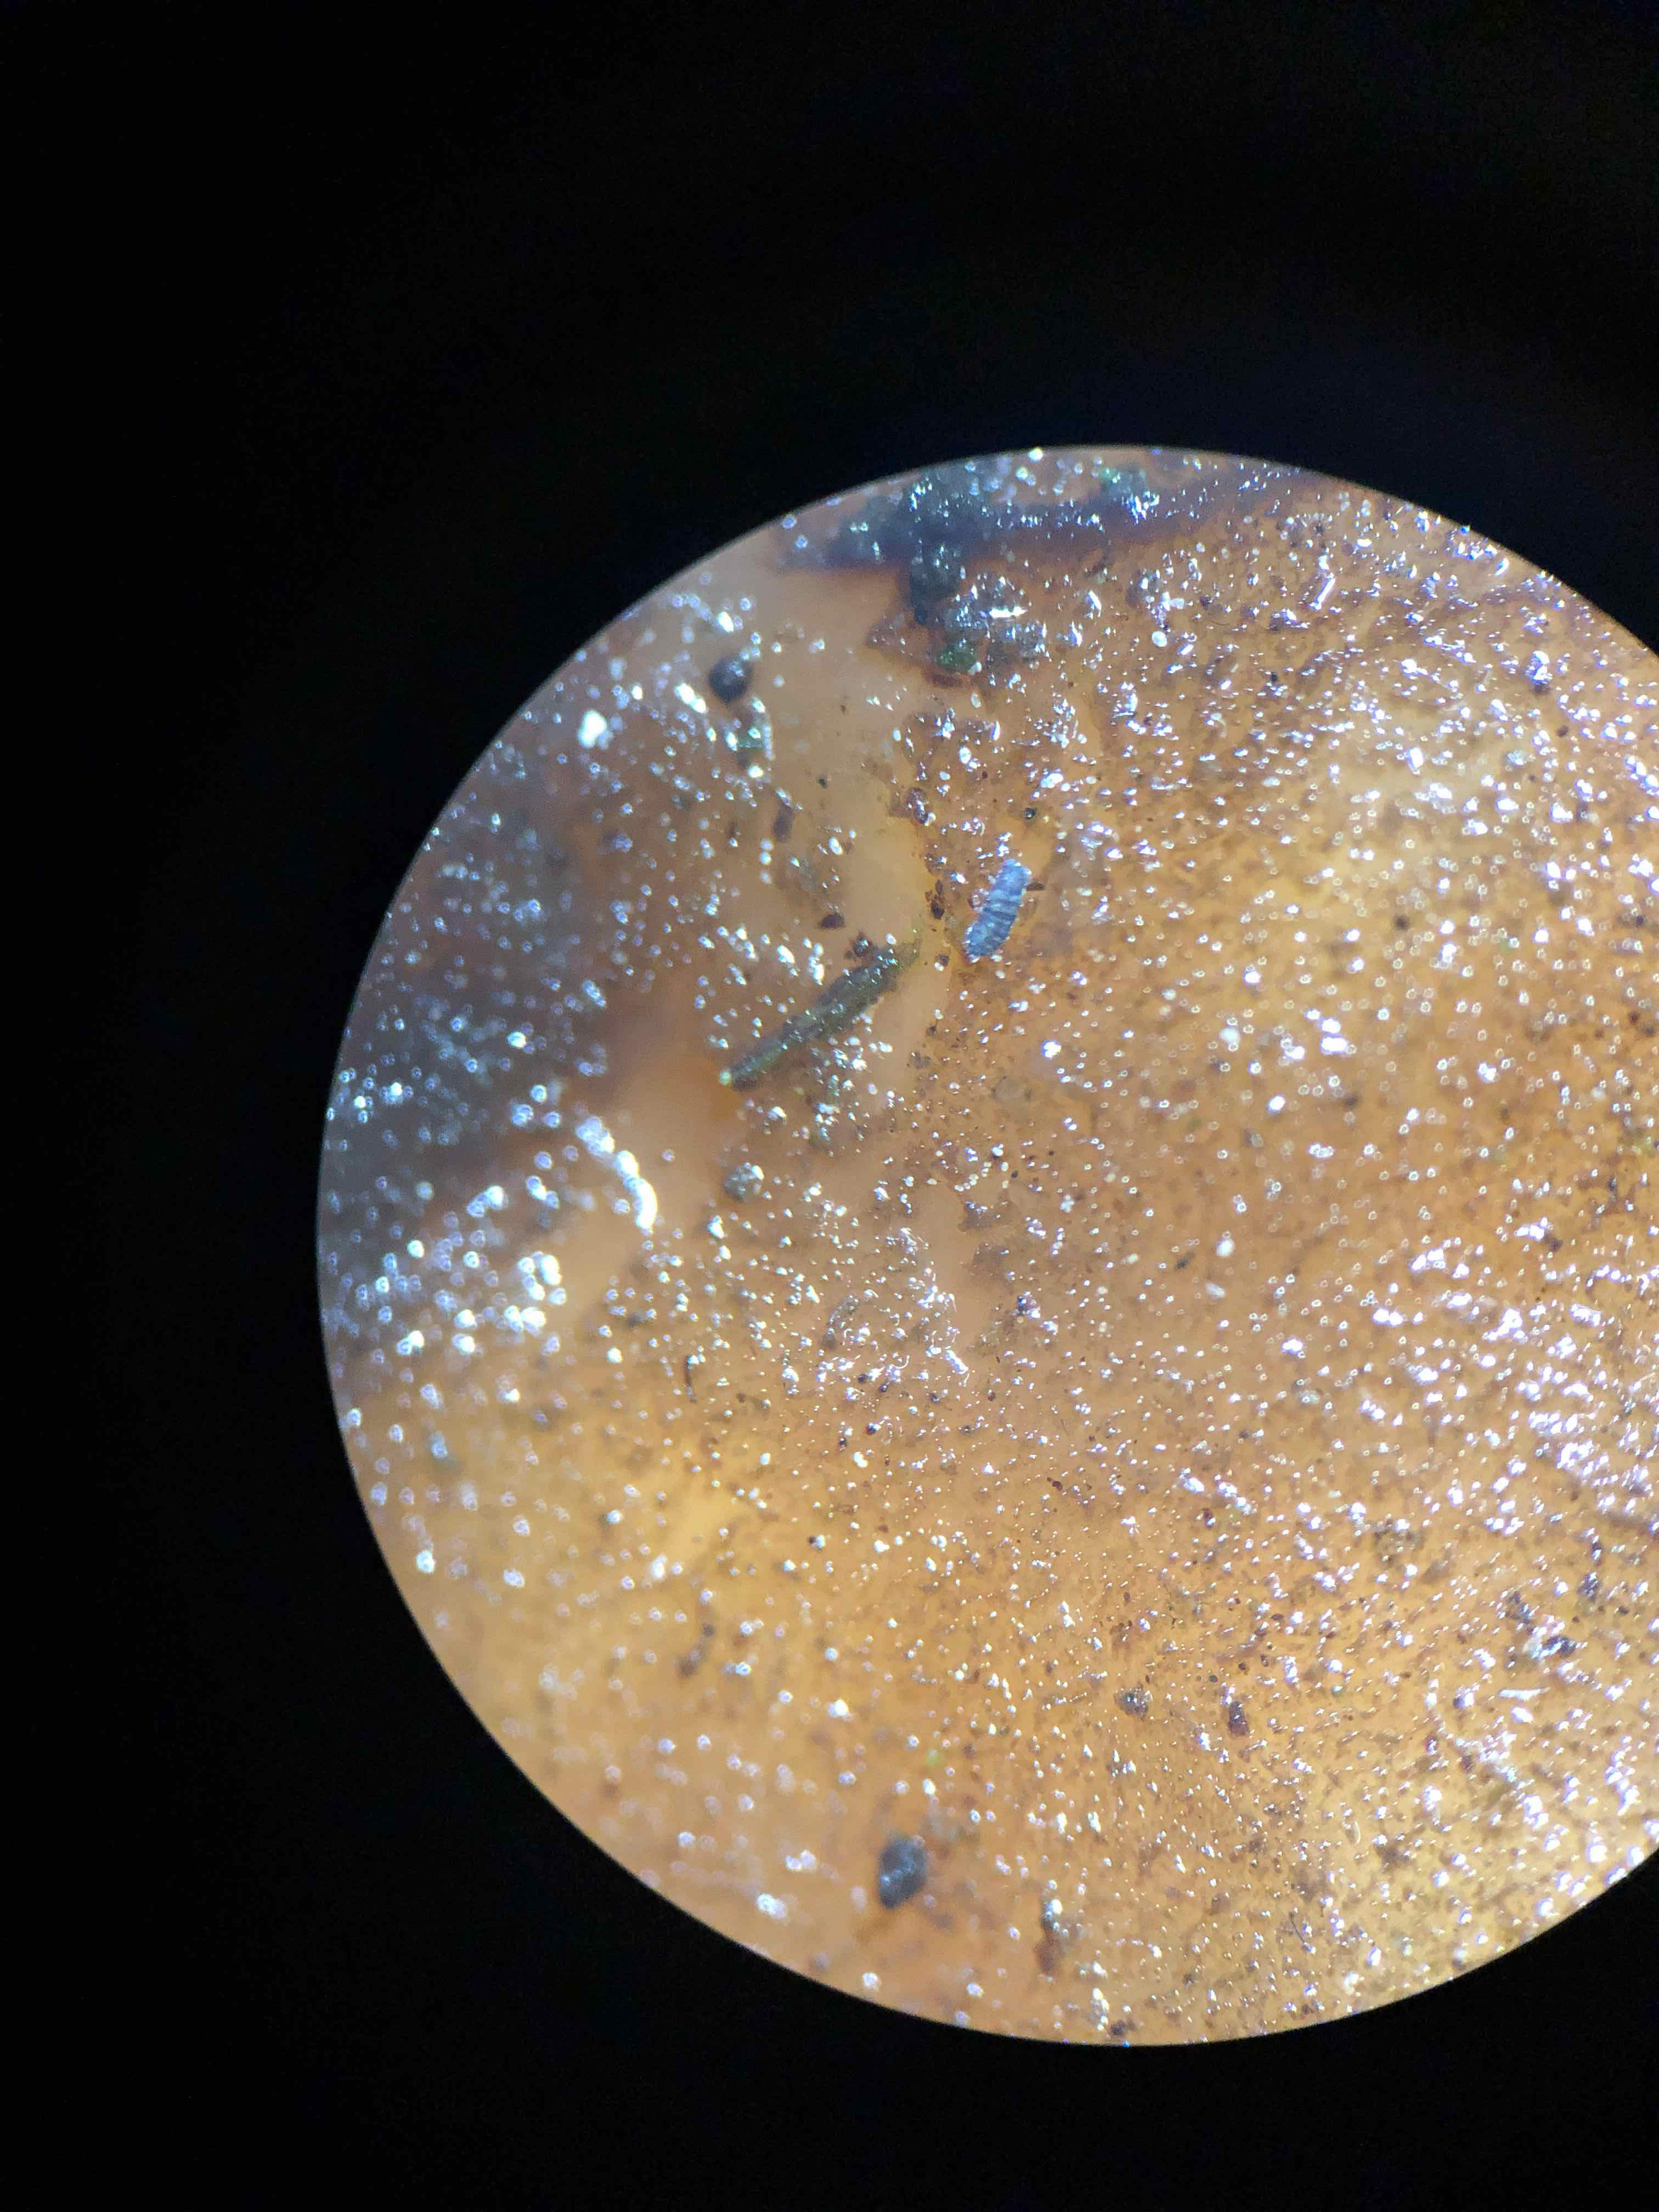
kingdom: Fungi
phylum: Basidiomycota
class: Agaricomycetes
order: Auriculariales
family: Auriculariaceae
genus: Exidia
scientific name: Exidia glandulosa
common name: ege-bævretop
